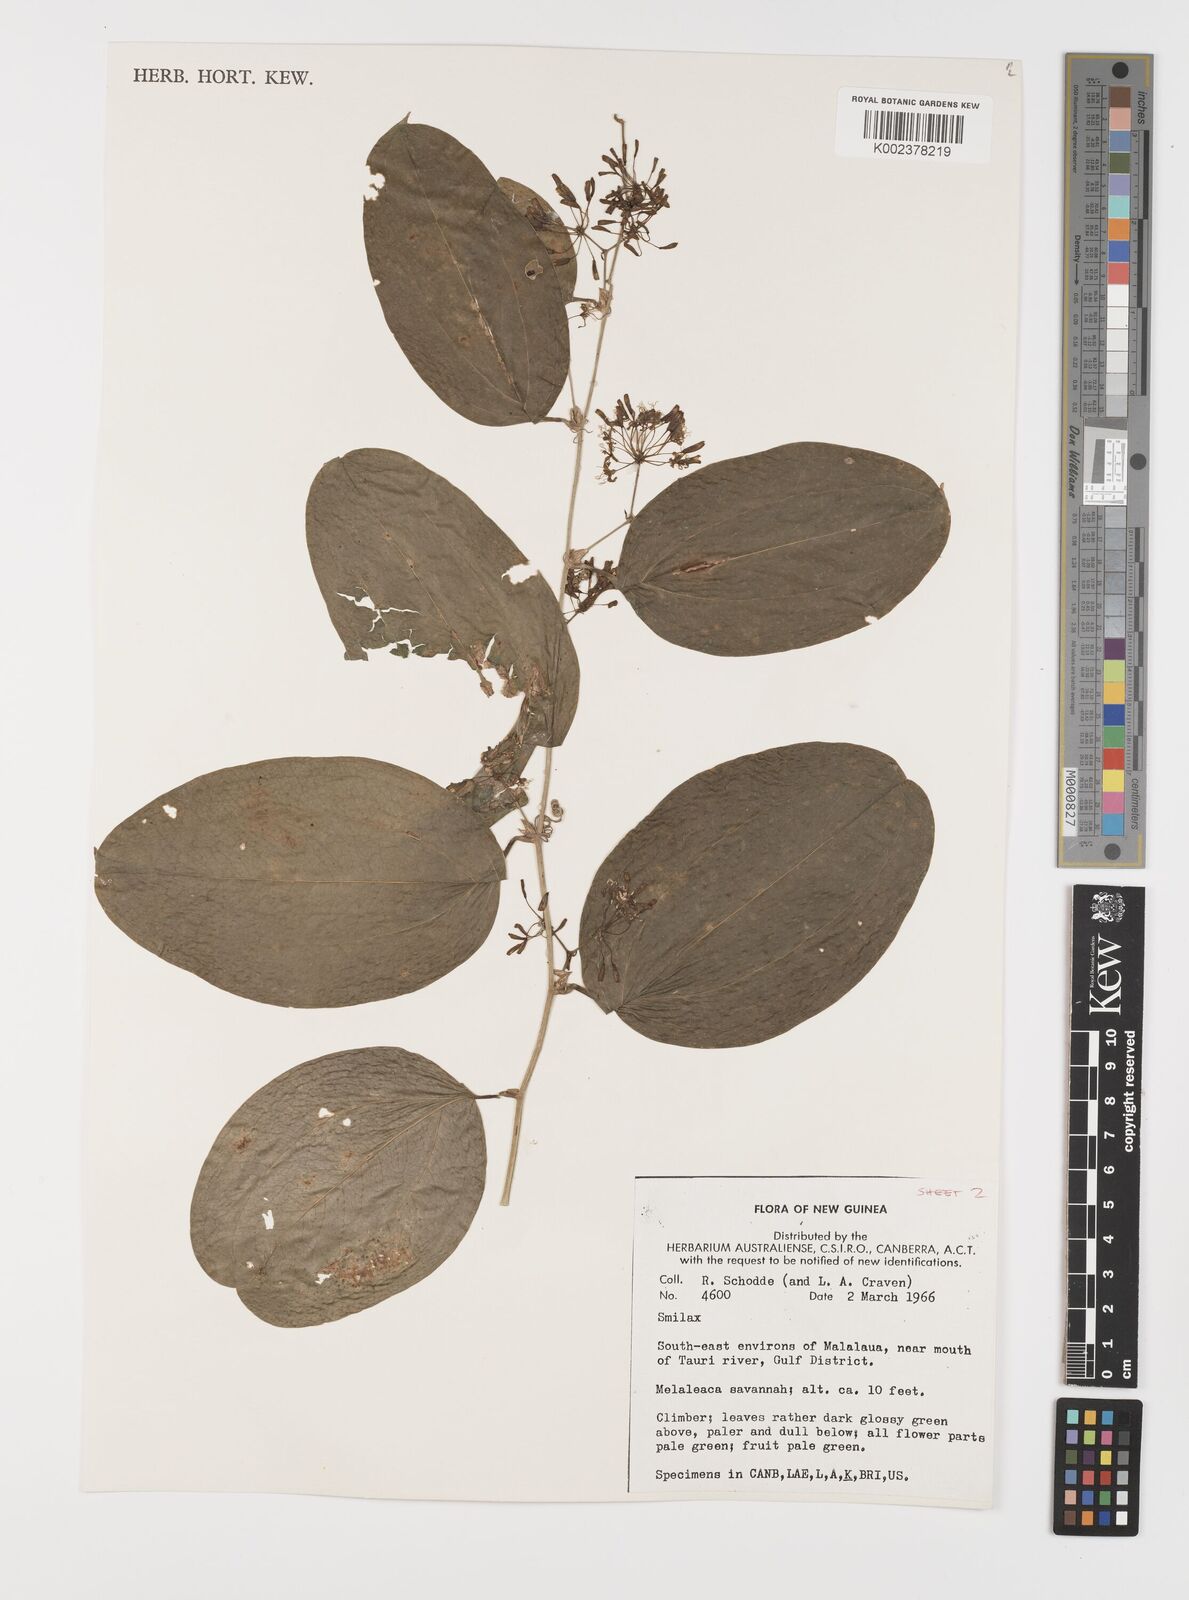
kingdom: Plantae
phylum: Tracheophyta
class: Liliopsida
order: Liliales
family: Smilacaceae
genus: Smilax
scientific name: Smilax
